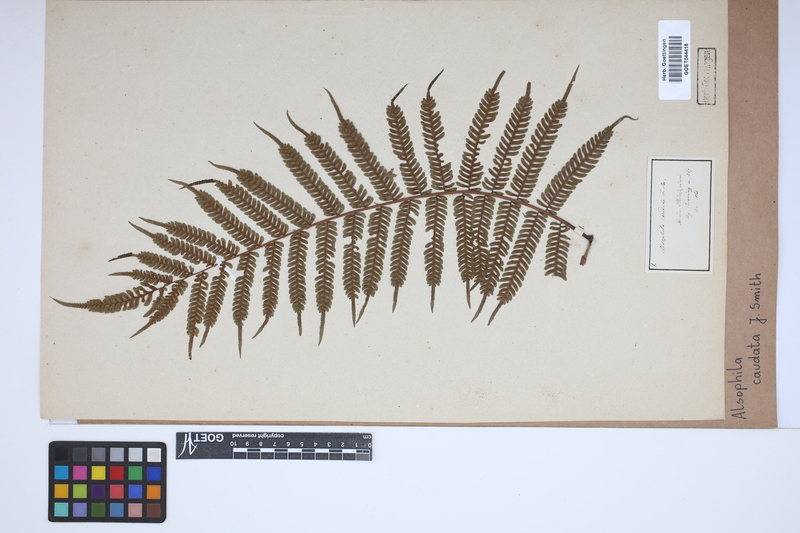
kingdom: Plantae
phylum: Tracheophyta
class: Polypodiopsida
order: Cyatheales
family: Cyatheaceae
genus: Alsophila
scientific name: Alsophila speciosa
